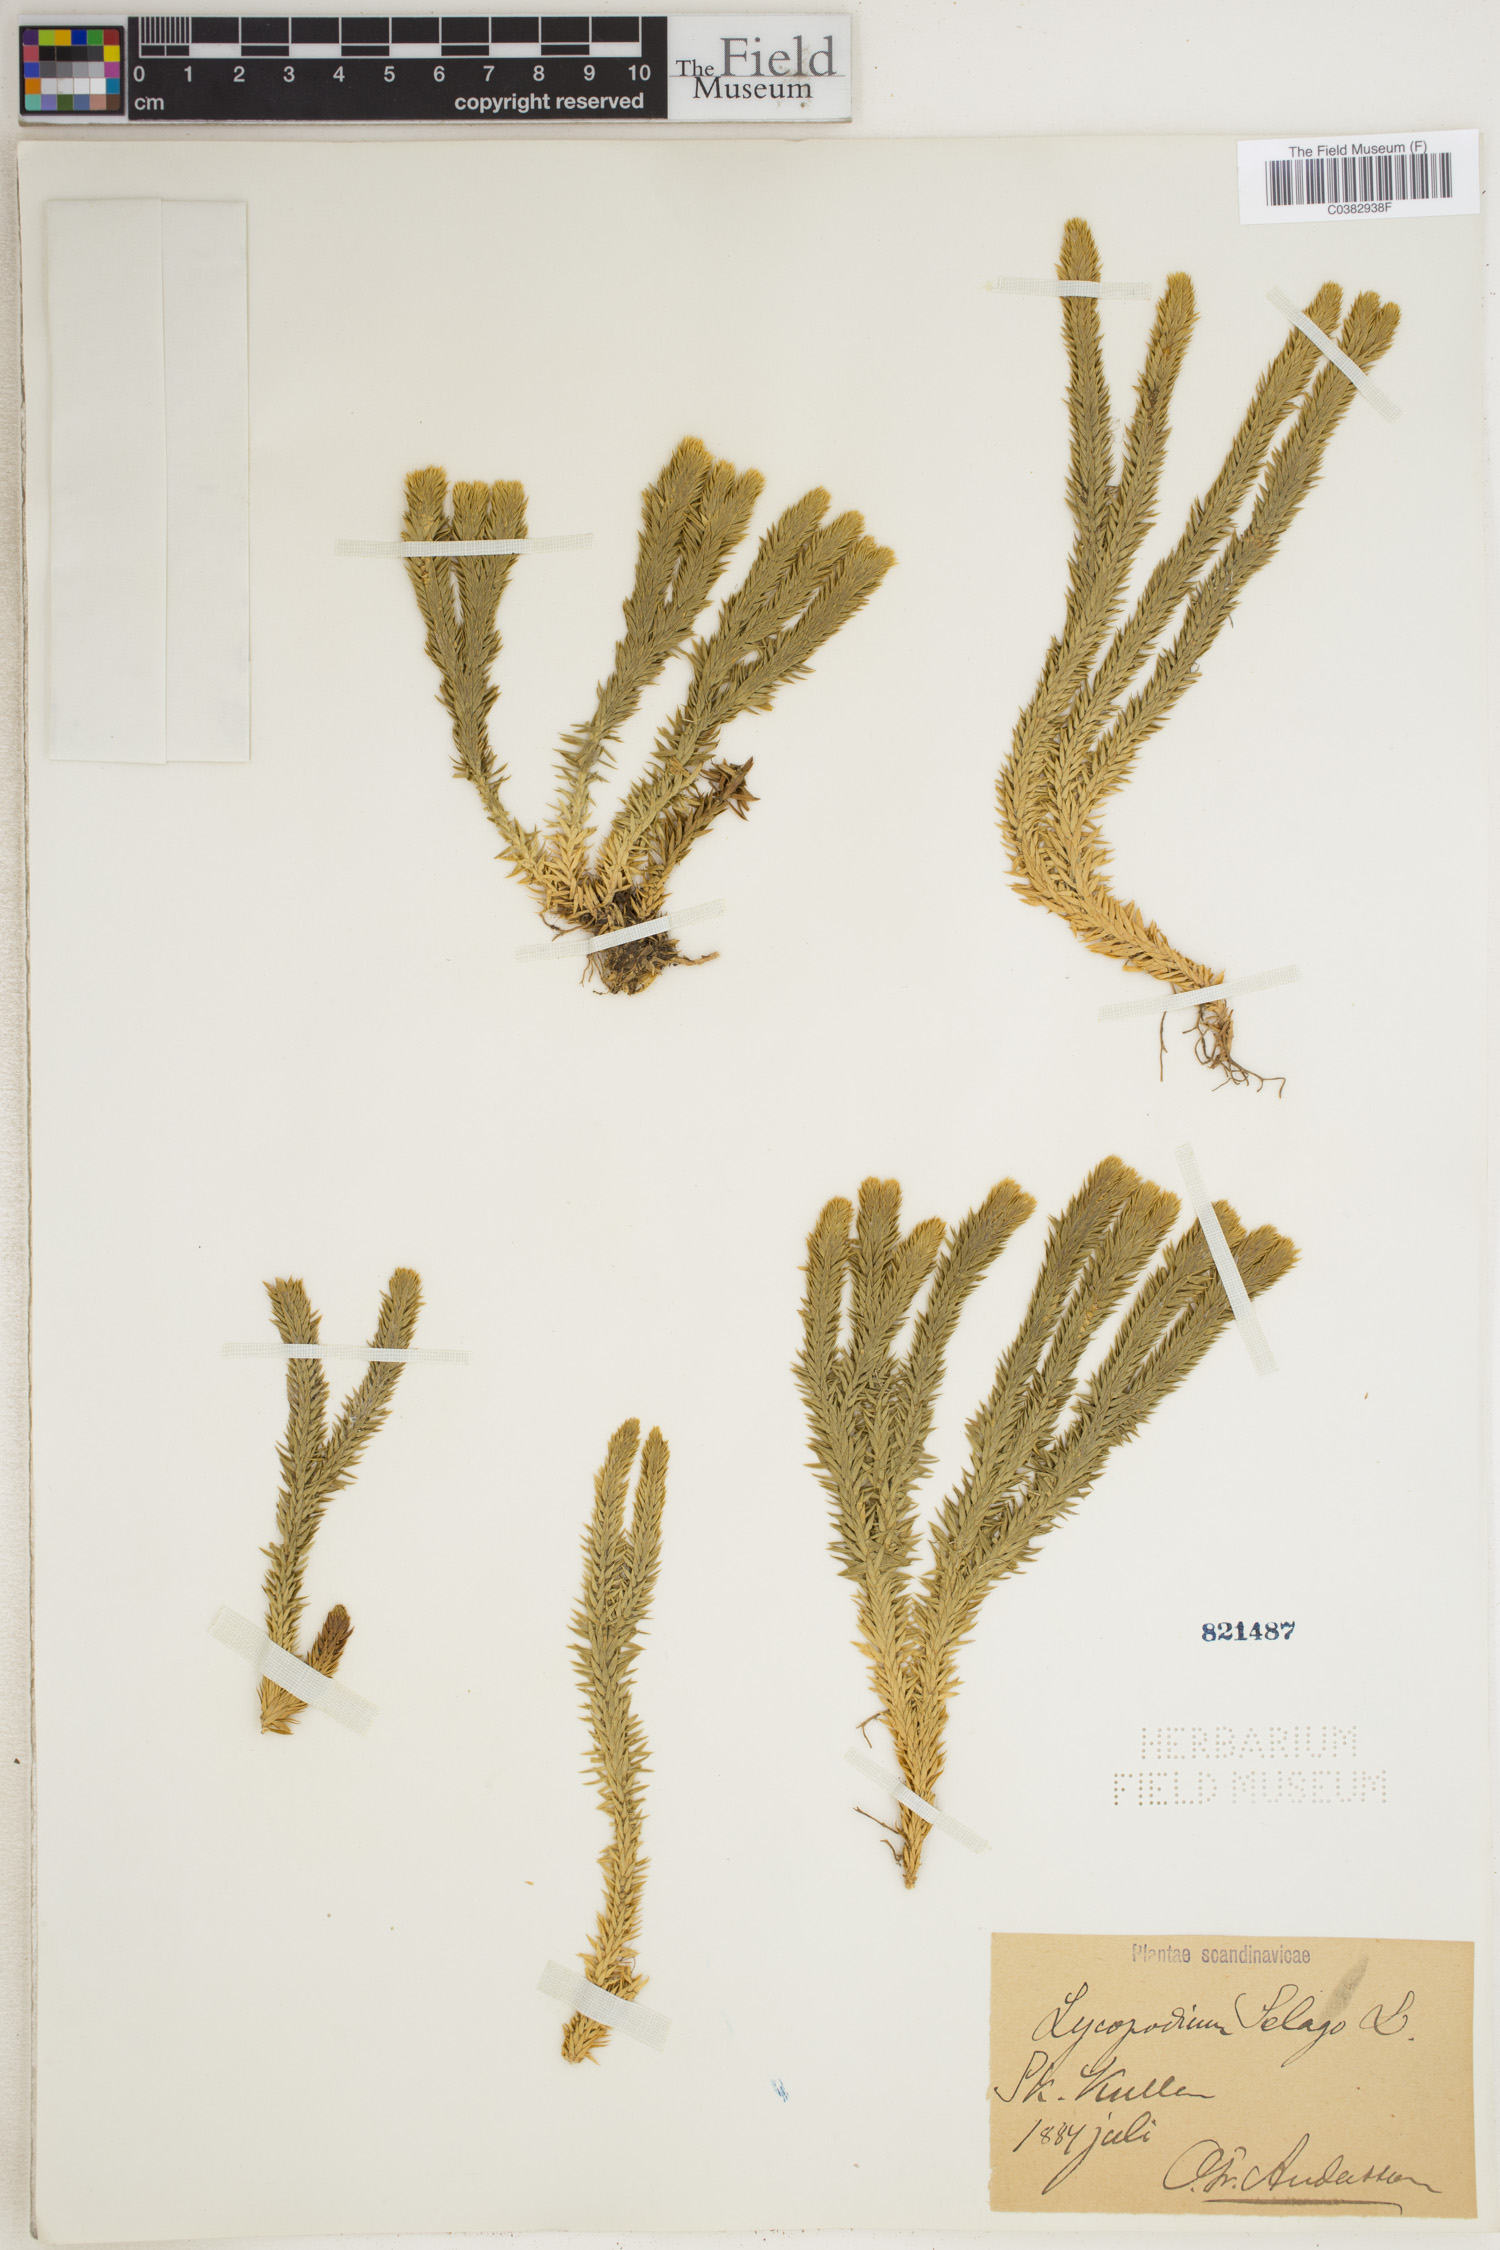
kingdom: Plantae
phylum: Tracheophyta
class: Lycopodiopsida
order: Lycopodiales
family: Lycopodiaceae
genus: Huperzia
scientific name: Huperzia selago
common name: Northern firmoss
